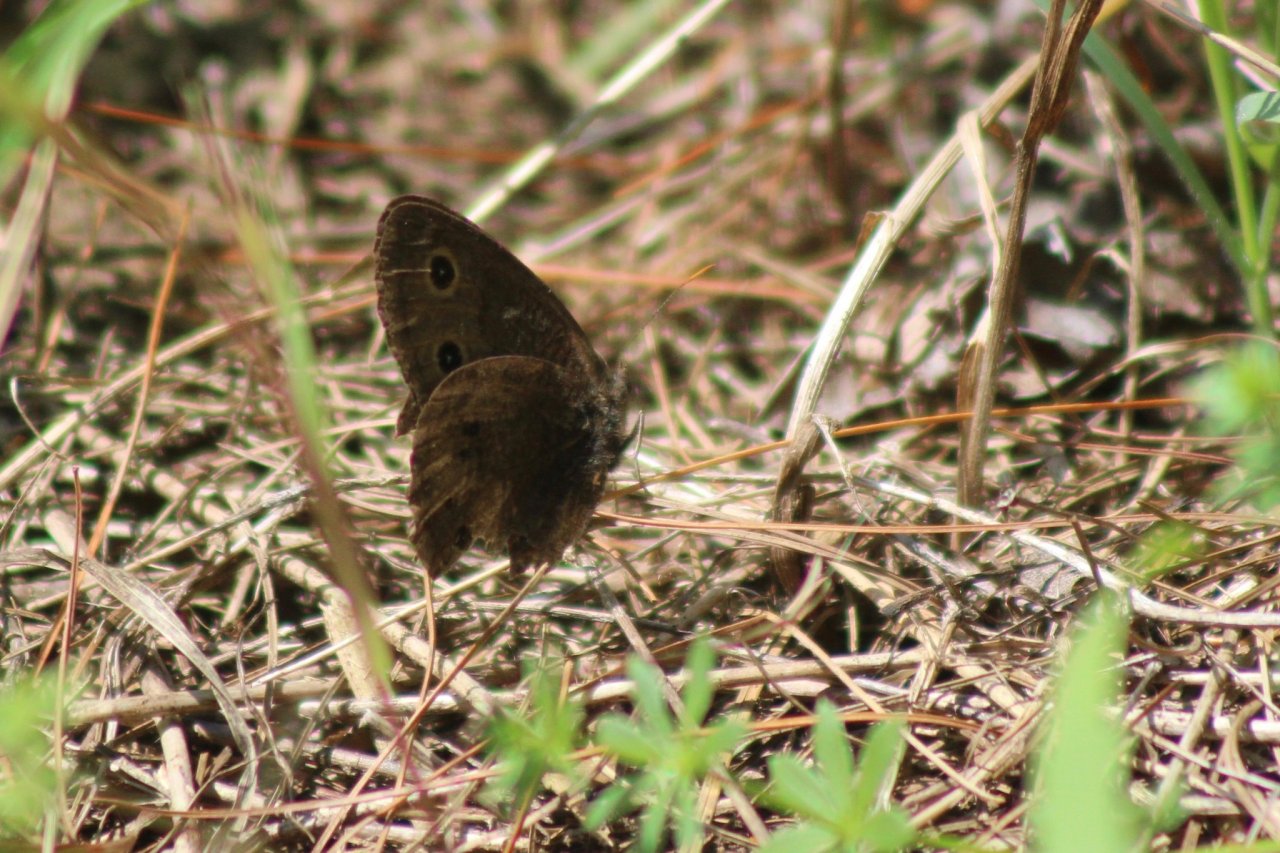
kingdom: Animalia
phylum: Arthropoda
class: Insecta
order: Lepidoptera
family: Nymphalidae
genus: Cercyonis
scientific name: Cercyonis pegala
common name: Common Wood-Nymph
